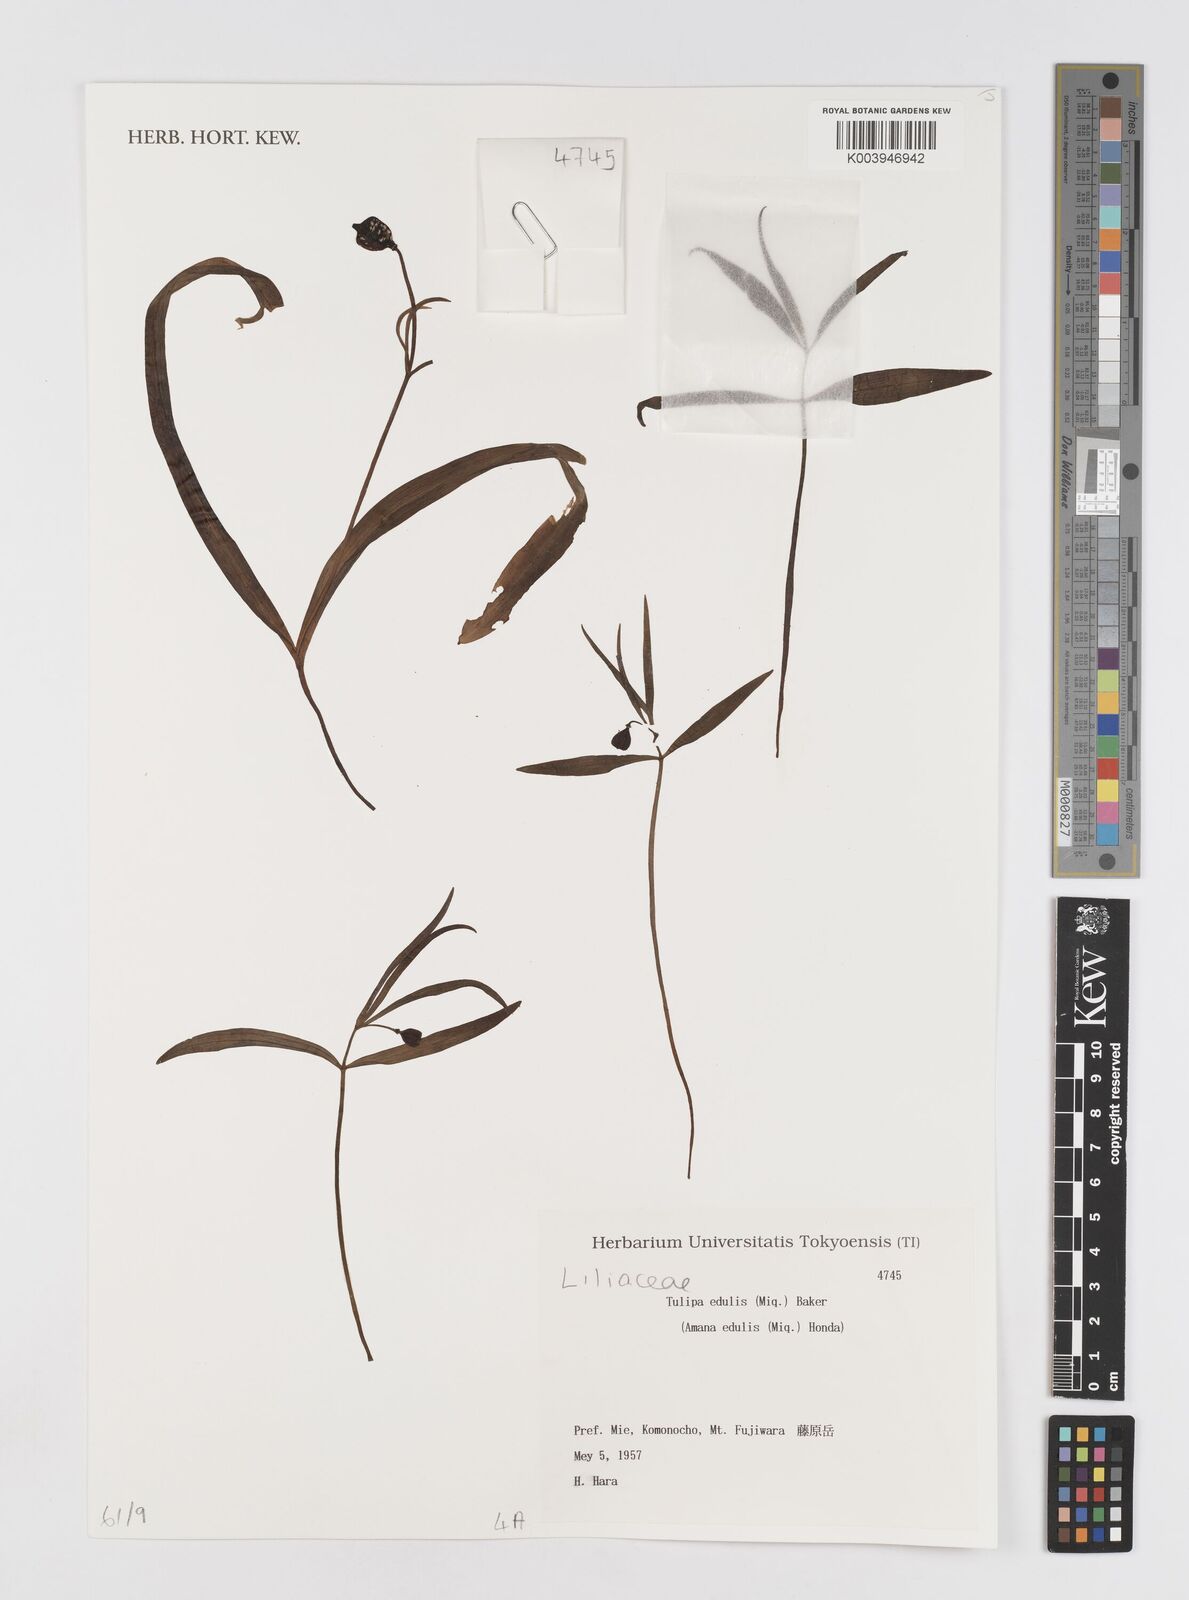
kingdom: Plantae
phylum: Tracheophyta
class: Liliopsida
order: Liliales
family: Liliaceae
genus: Amana
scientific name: Amana edulis
